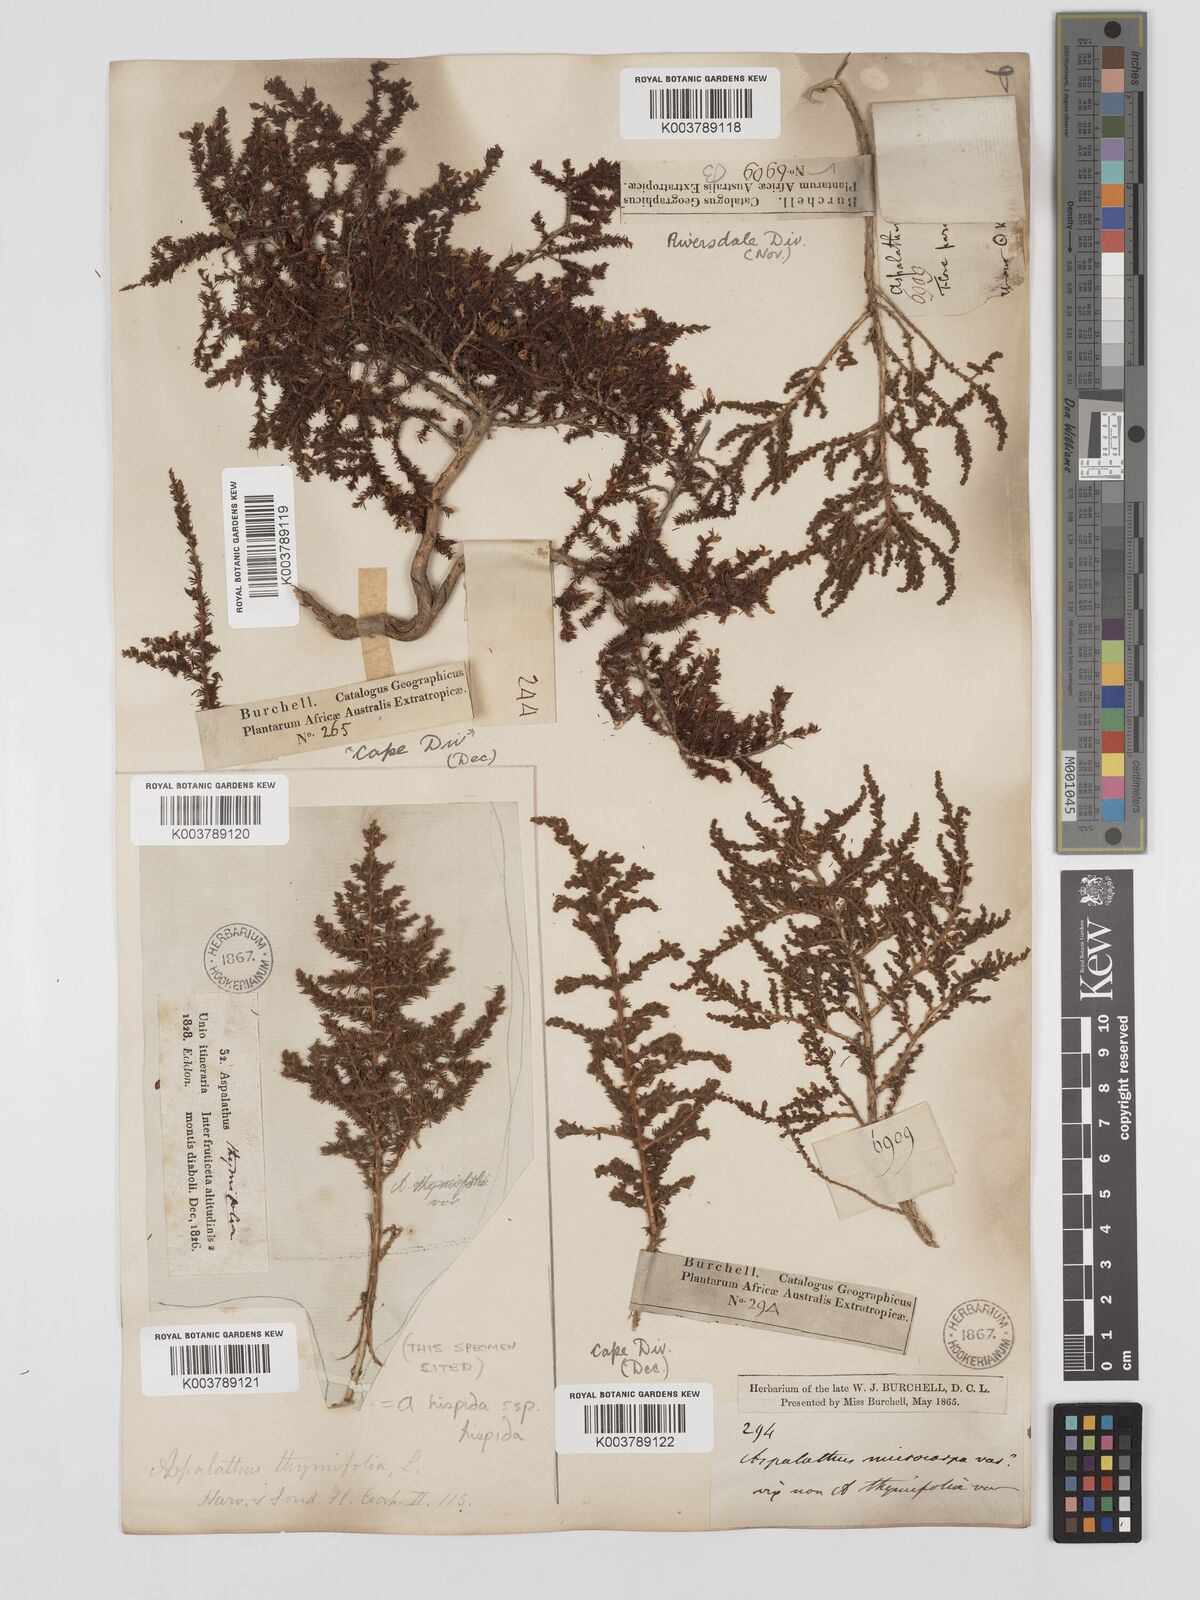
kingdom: Plantae
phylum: Tracheophyta
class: Magnoliopsida
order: Fabales
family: Fabaceae
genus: Aspalathus
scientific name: Aspalathus hispida
